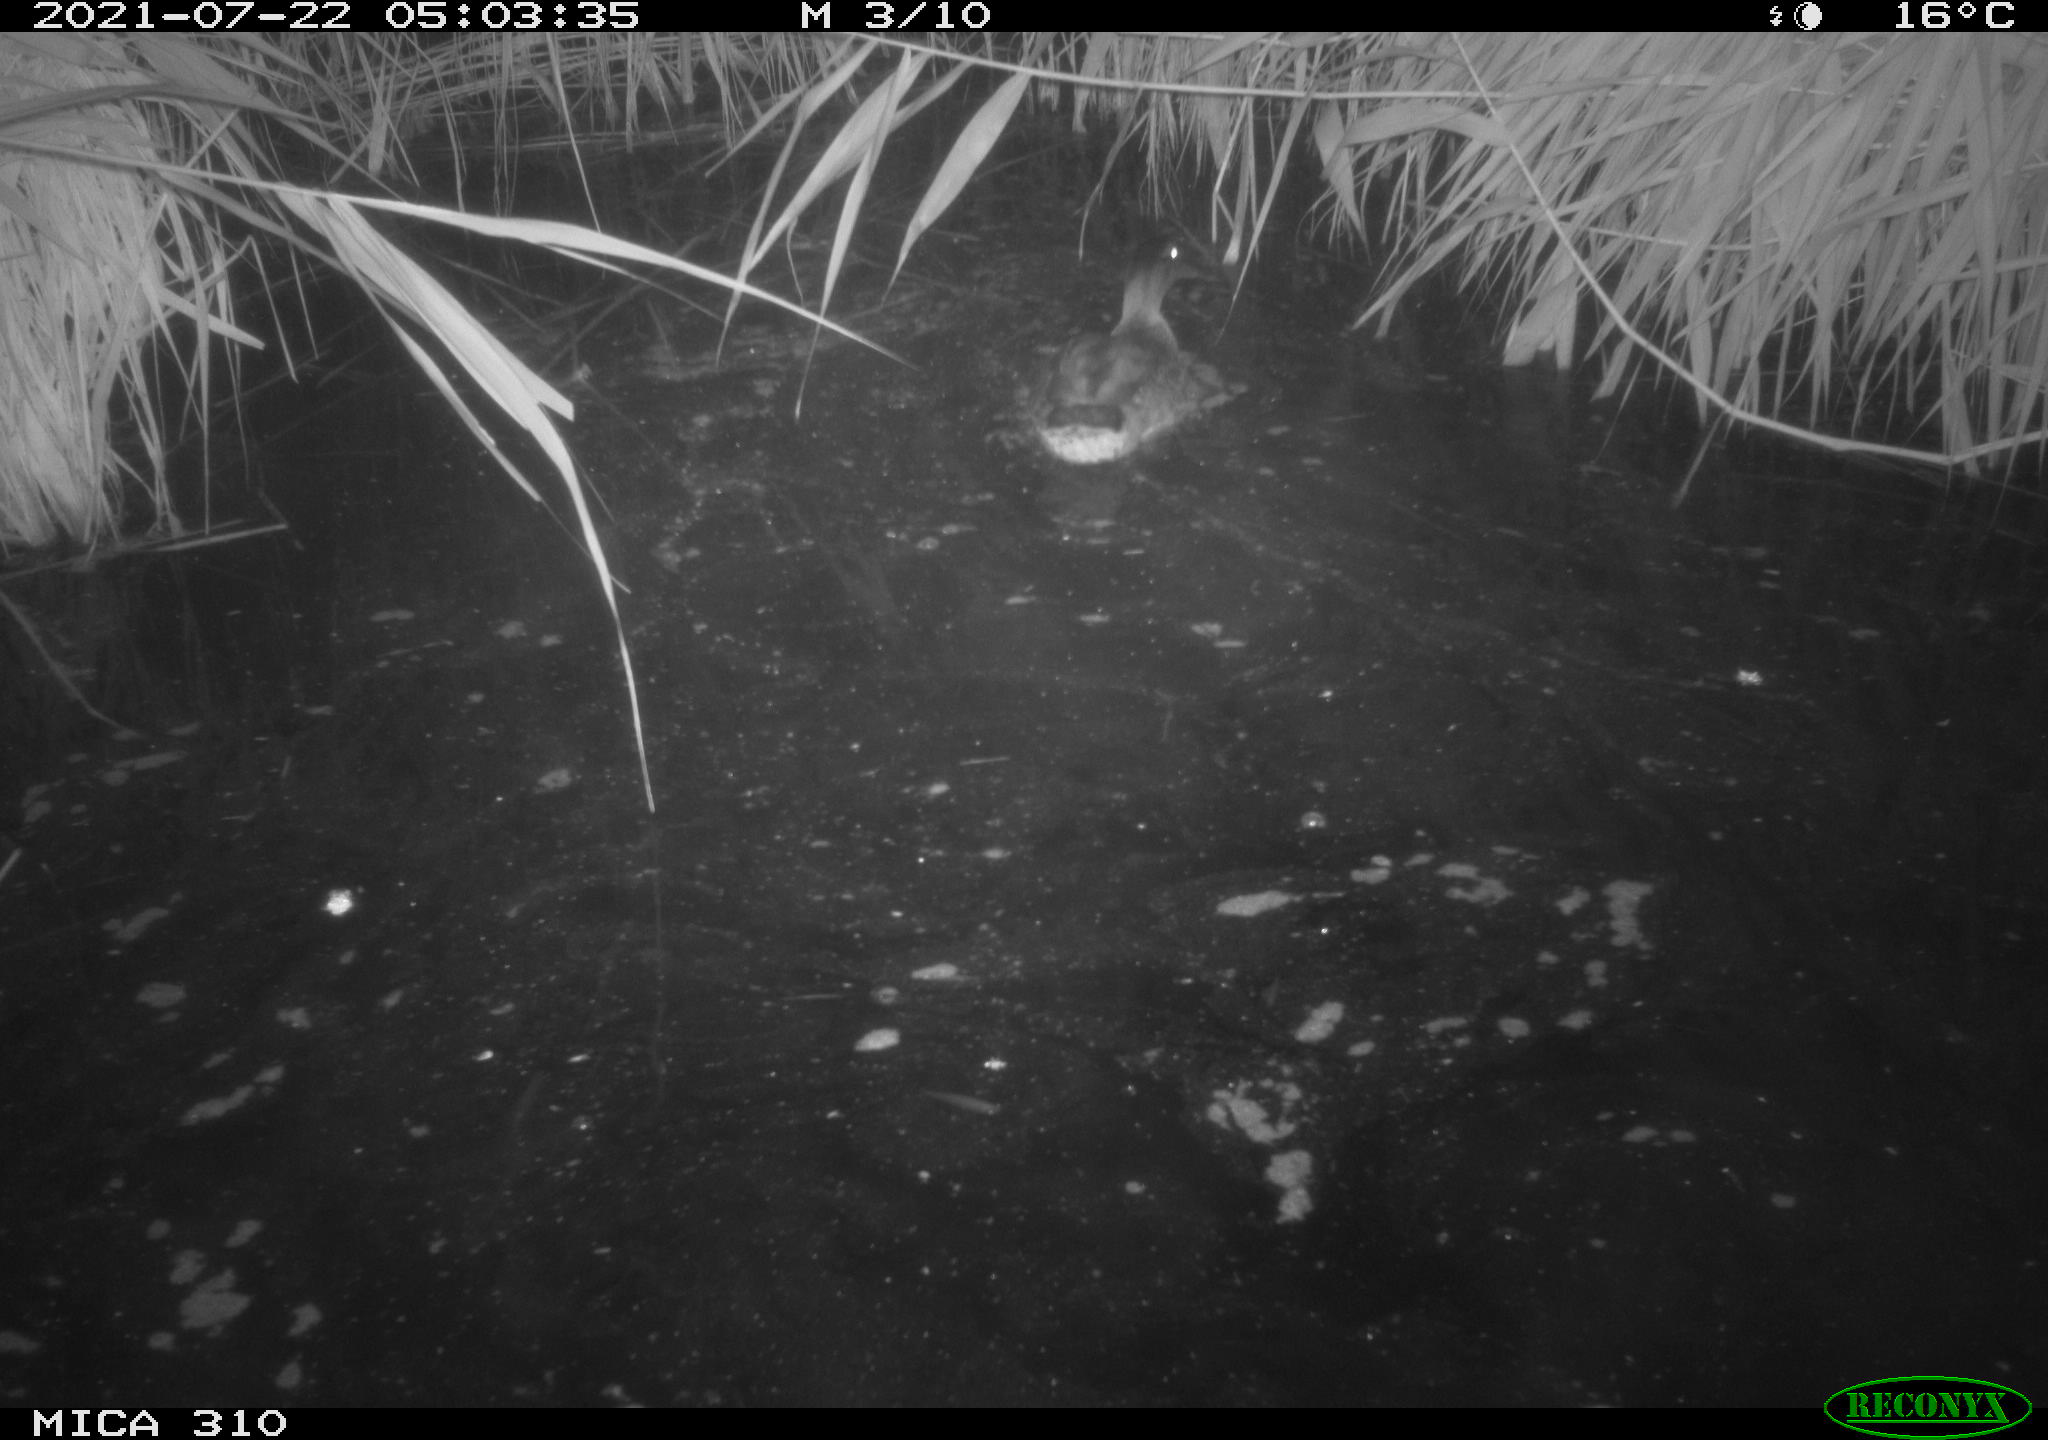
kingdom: Animalia
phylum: Chordata
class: Aves
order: Anseriformes
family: Anatidae
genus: Anas
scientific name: Anas platyrhynchos
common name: Mallard
